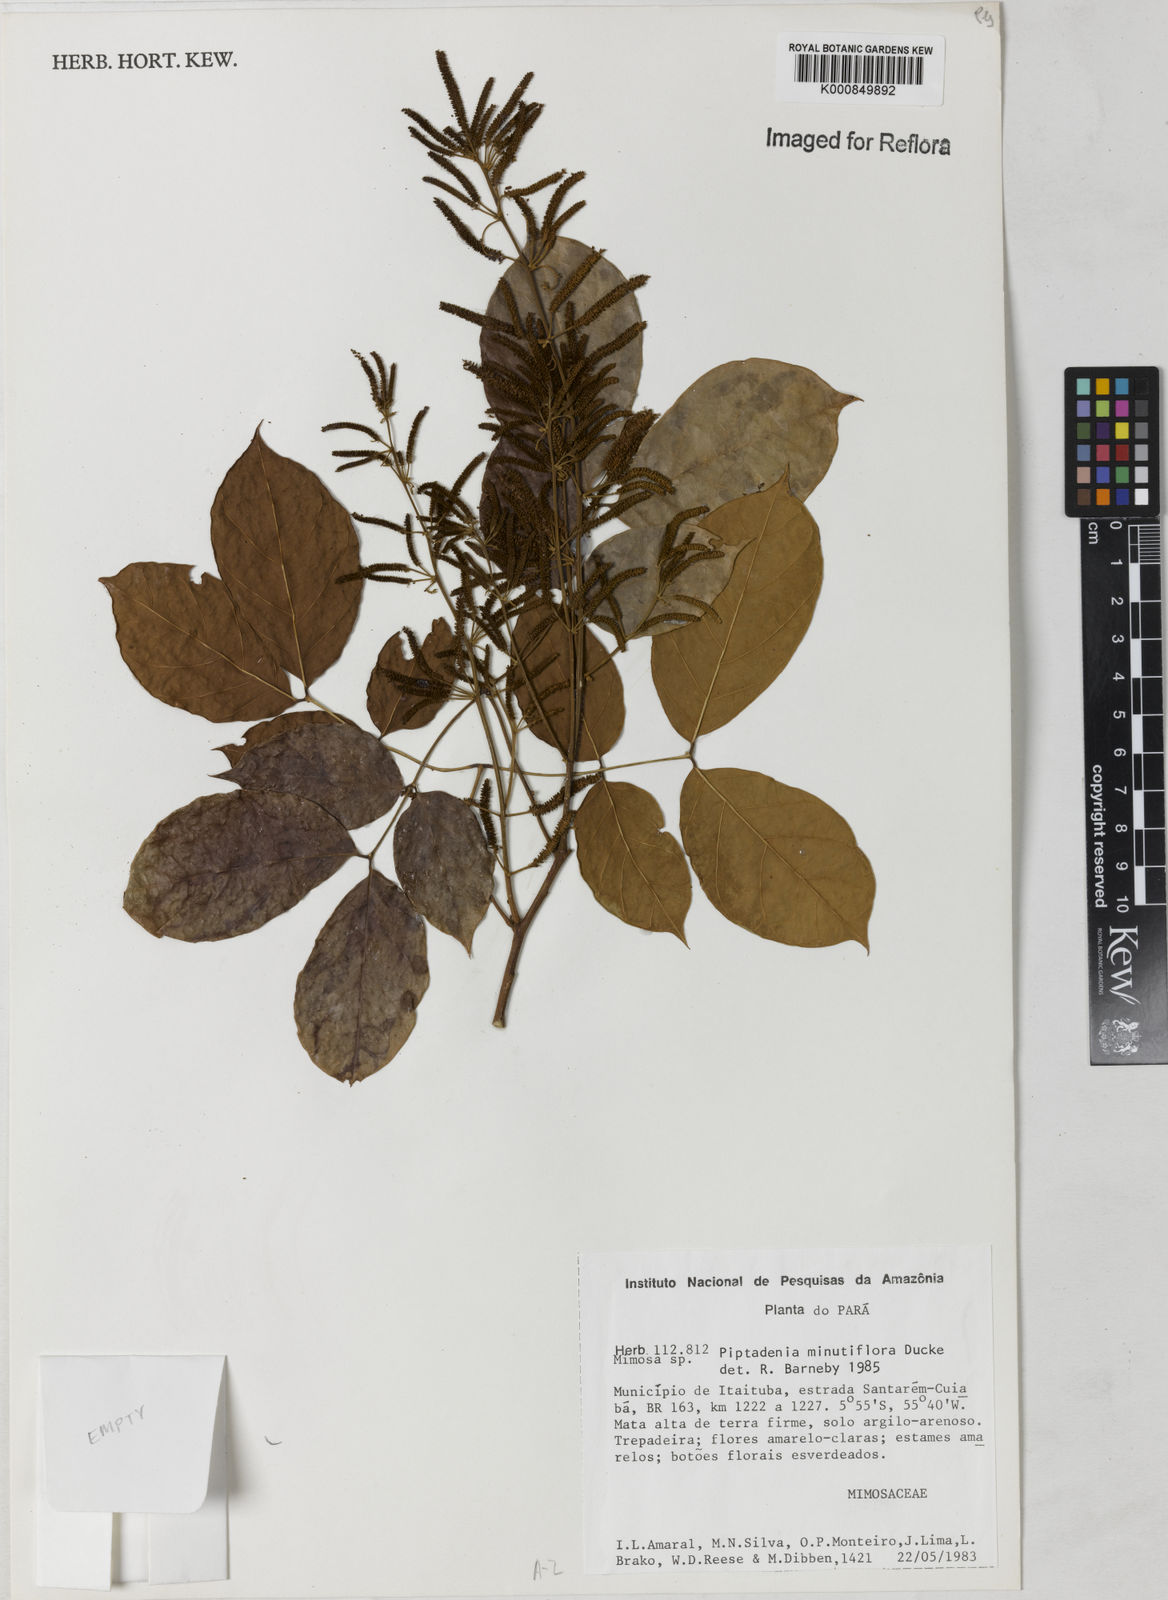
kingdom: Plantae
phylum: Tracheophyta
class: Magnoliopsida
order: Fabales
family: Fabaceae
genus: Piptadenia
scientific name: Piptadenia minutiflora
